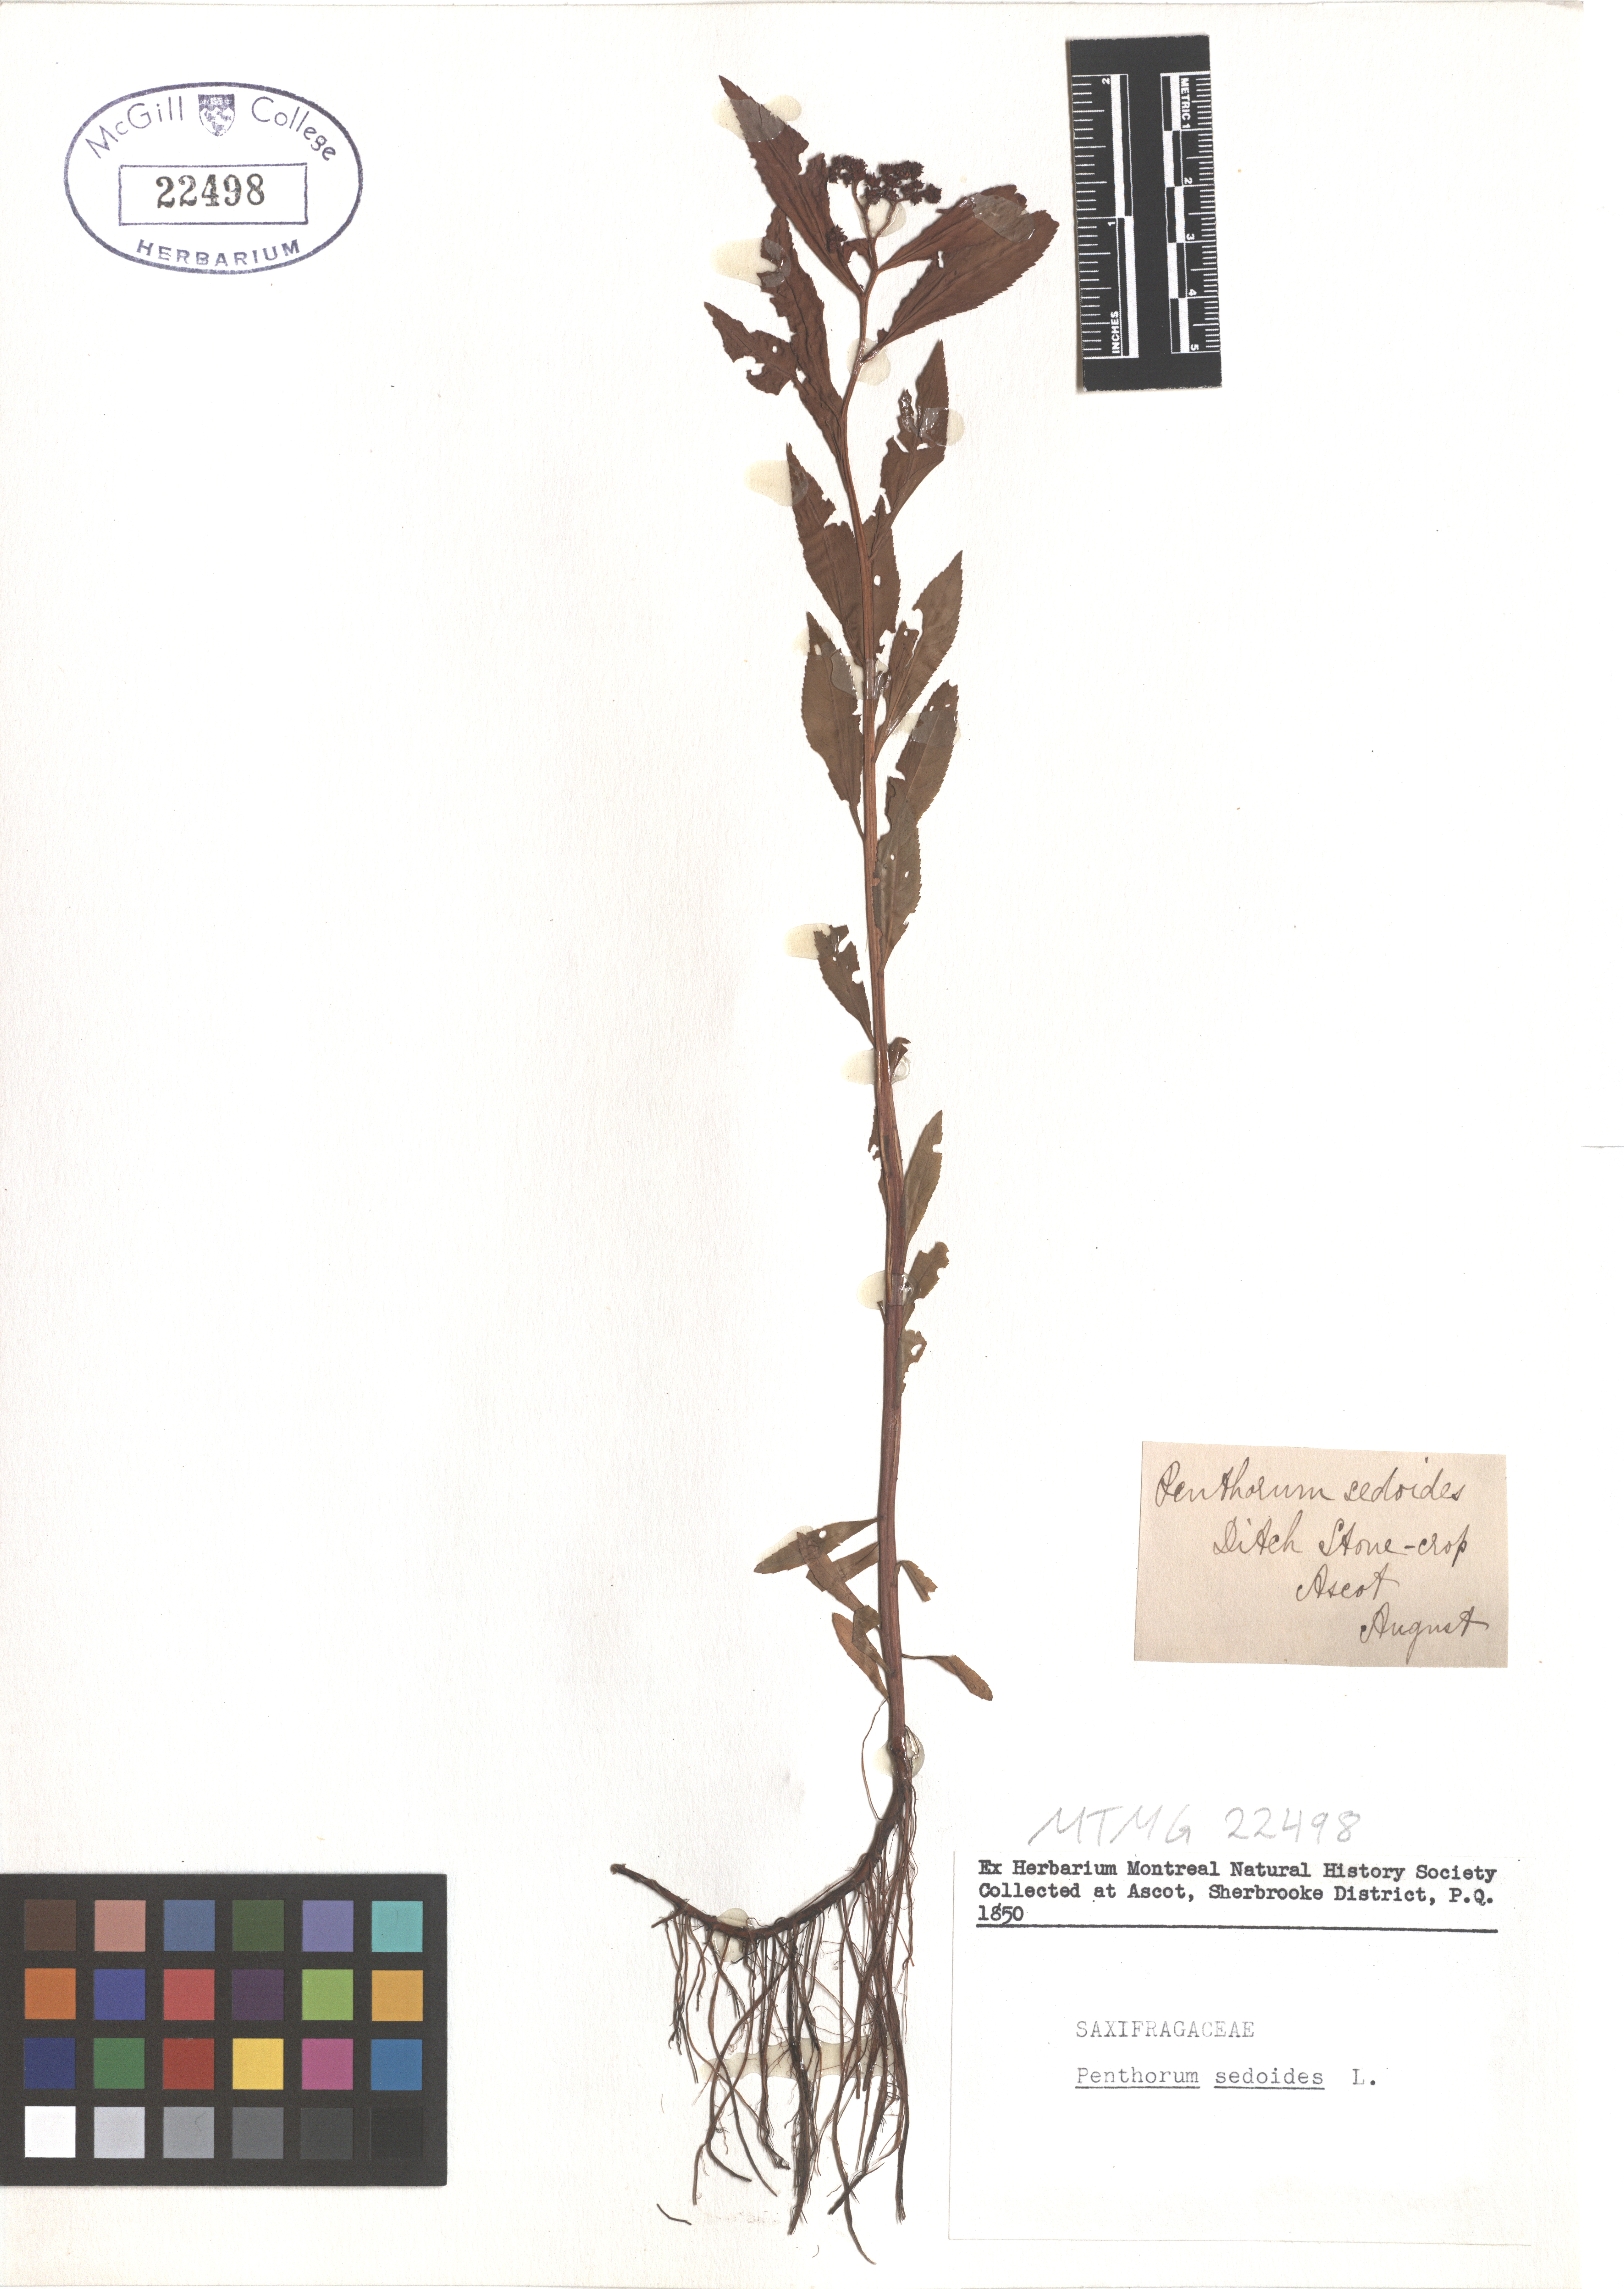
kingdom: Plantae
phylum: Tracheophyta
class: Magnoliopsida
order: Saxifragales
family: Penthoraceae
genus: Penthorum
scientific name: Penthorum sedoides
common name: Ditch stonecrop
